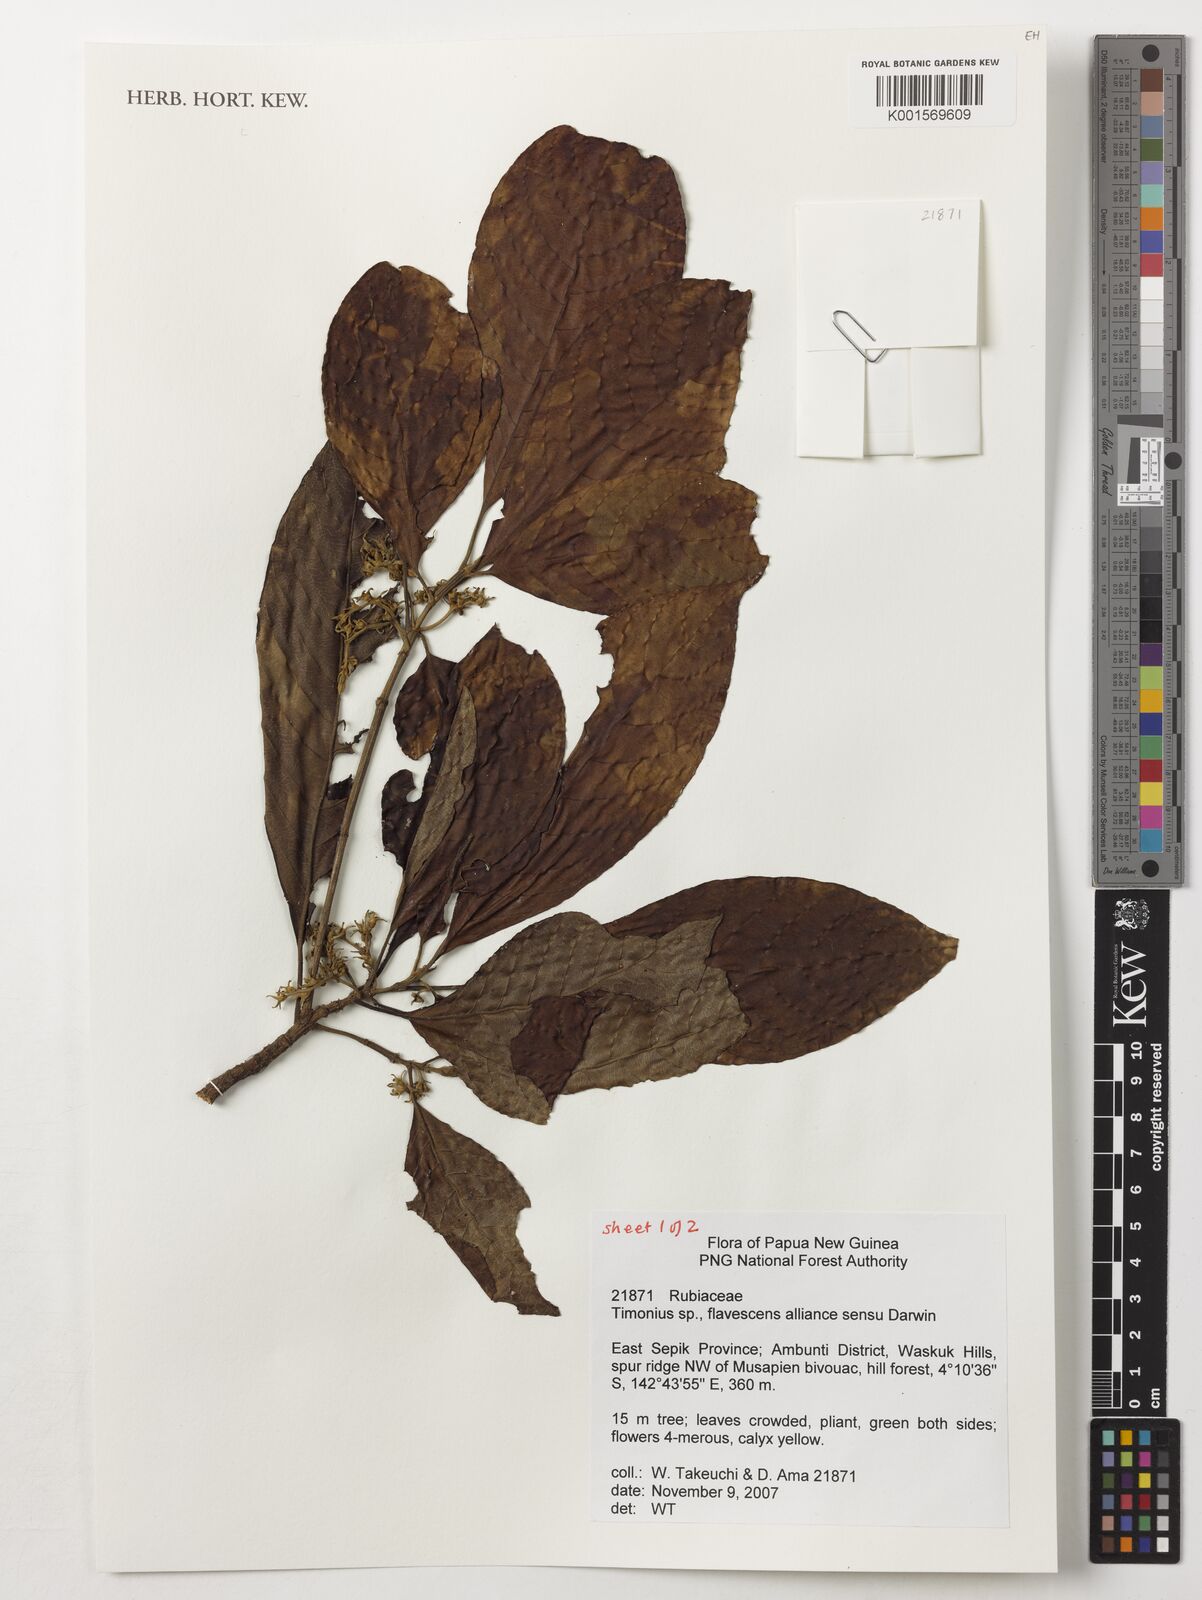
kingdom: Plantae
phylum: Tracheophyta
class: Magnoliopsida
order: Gentianales
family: Rubiaceae
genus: Timonius
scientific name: Timonius
